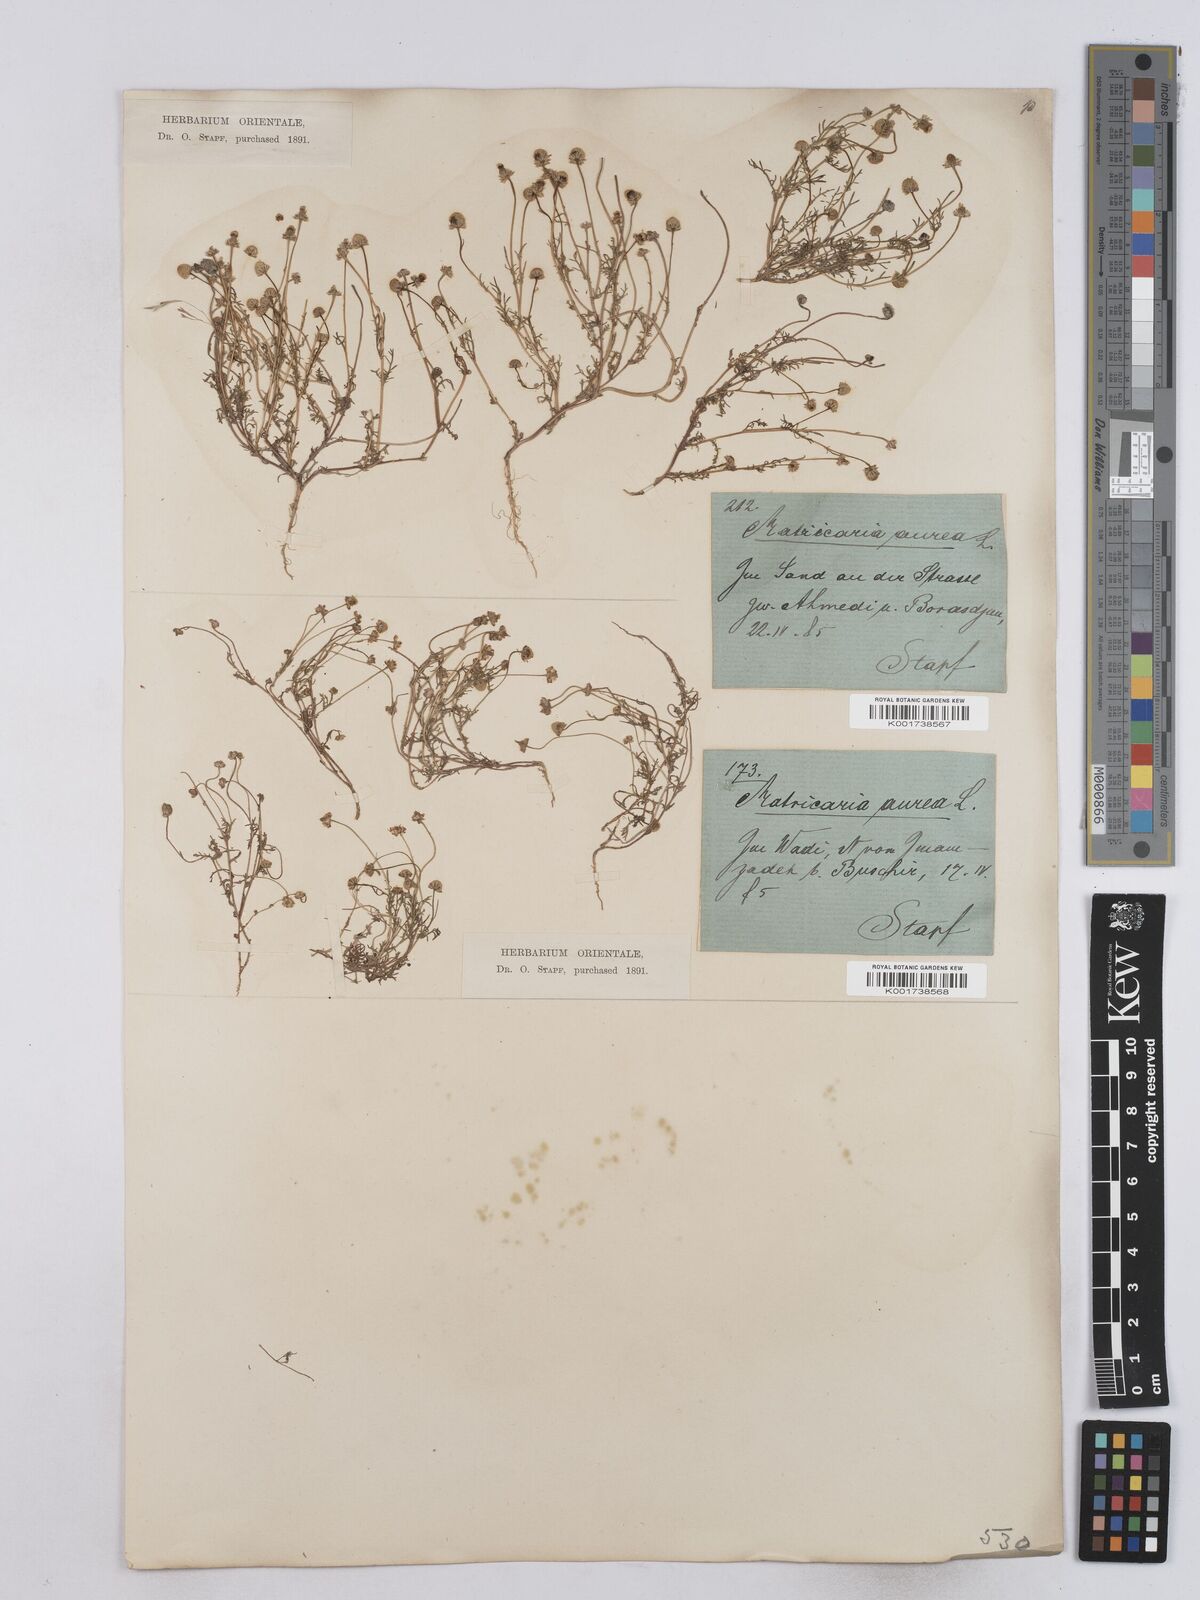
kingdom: Plantae
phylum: Tracheophyta
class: Magnoliopsida
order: Asterales
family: Asteraceae
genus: Matricaria
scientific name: Matricaria aurea
